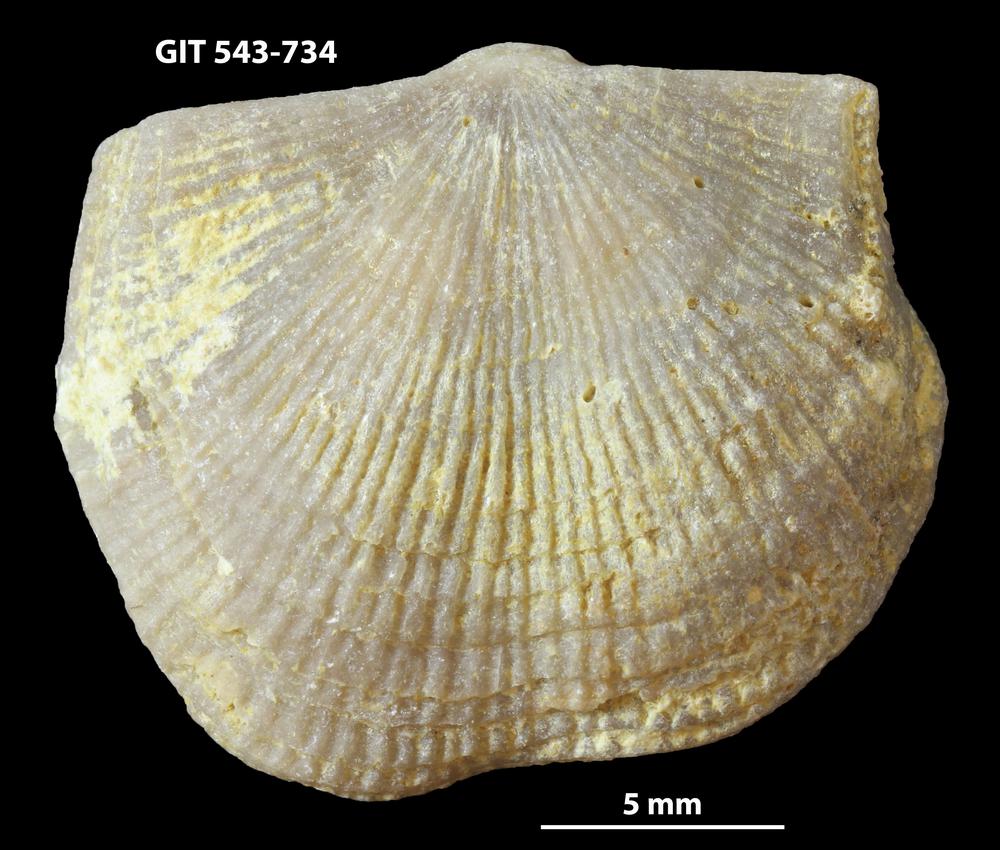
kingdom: Animalia
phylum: Brachiopoda
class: Rhynchonellata
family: Clitambonitidae
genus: Vellamo
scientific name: Vellamo oandoensis
